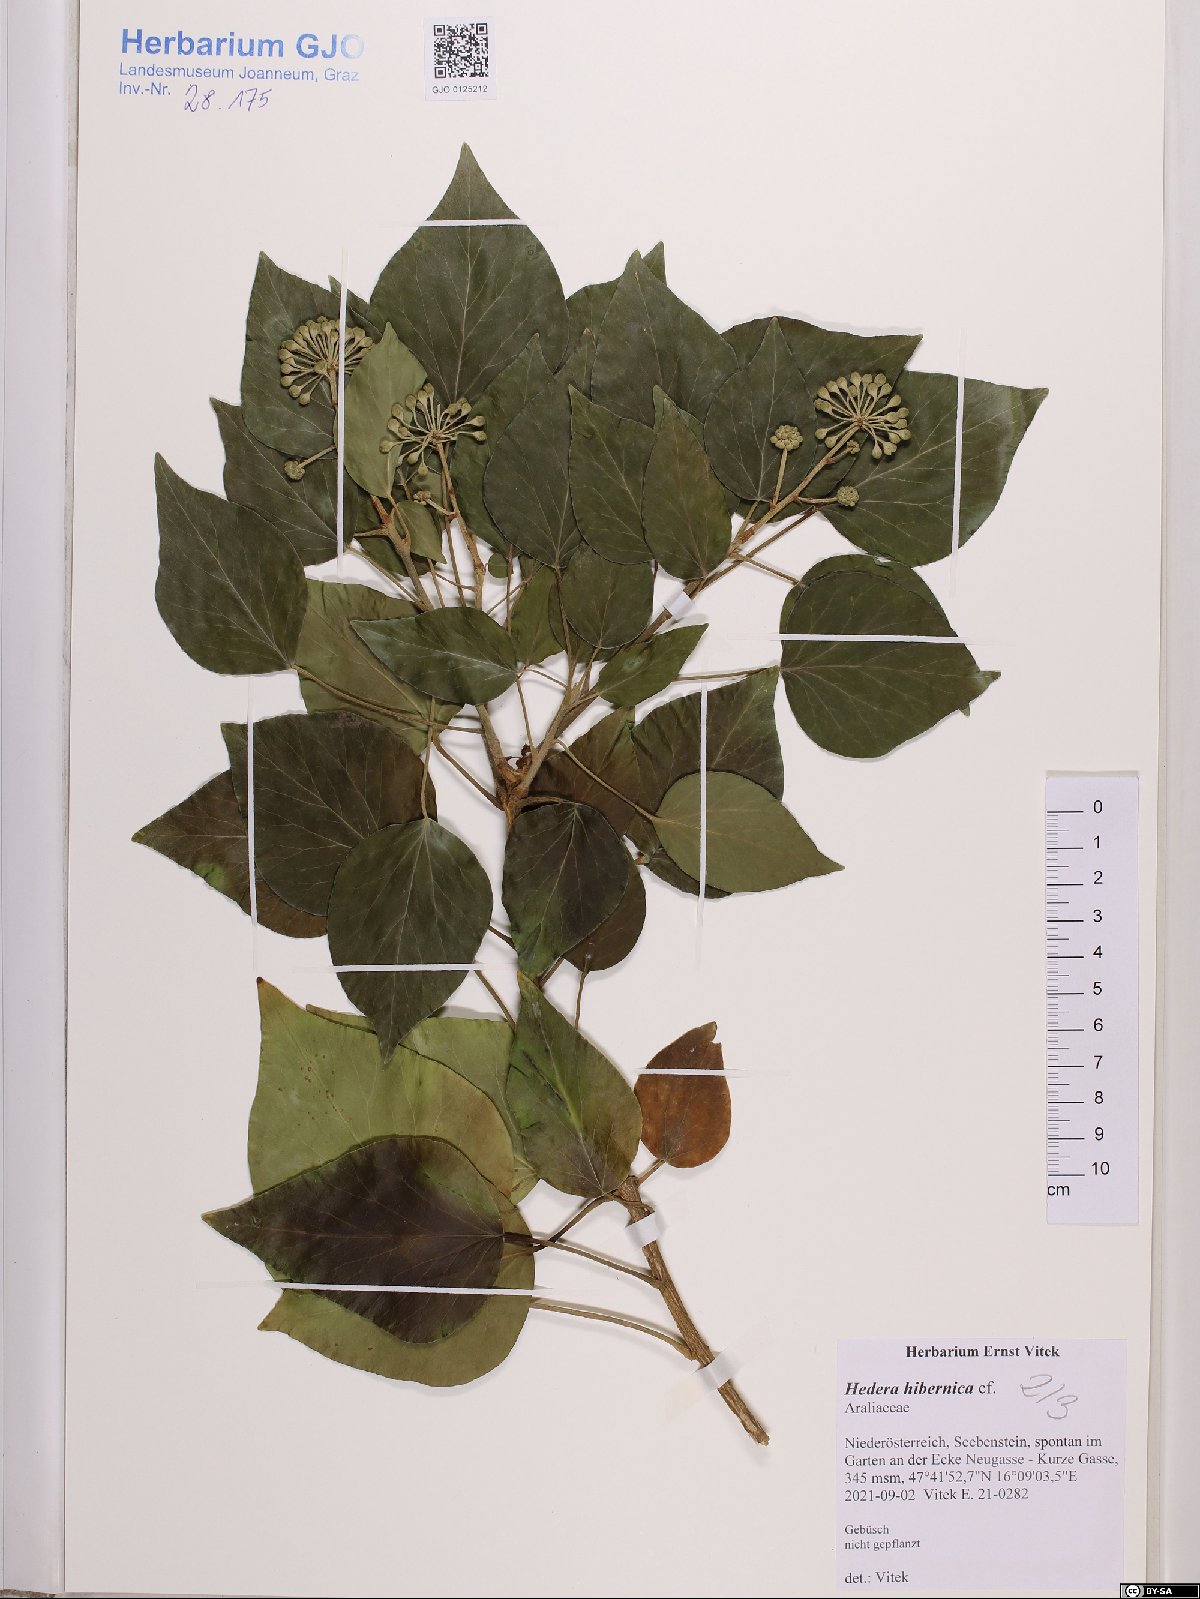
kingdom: Plantae
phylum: Tracheophyta
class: Magnoliopsida
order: Apiales
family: Araliaceae
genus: Hedera
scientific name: Hedera hibernica
